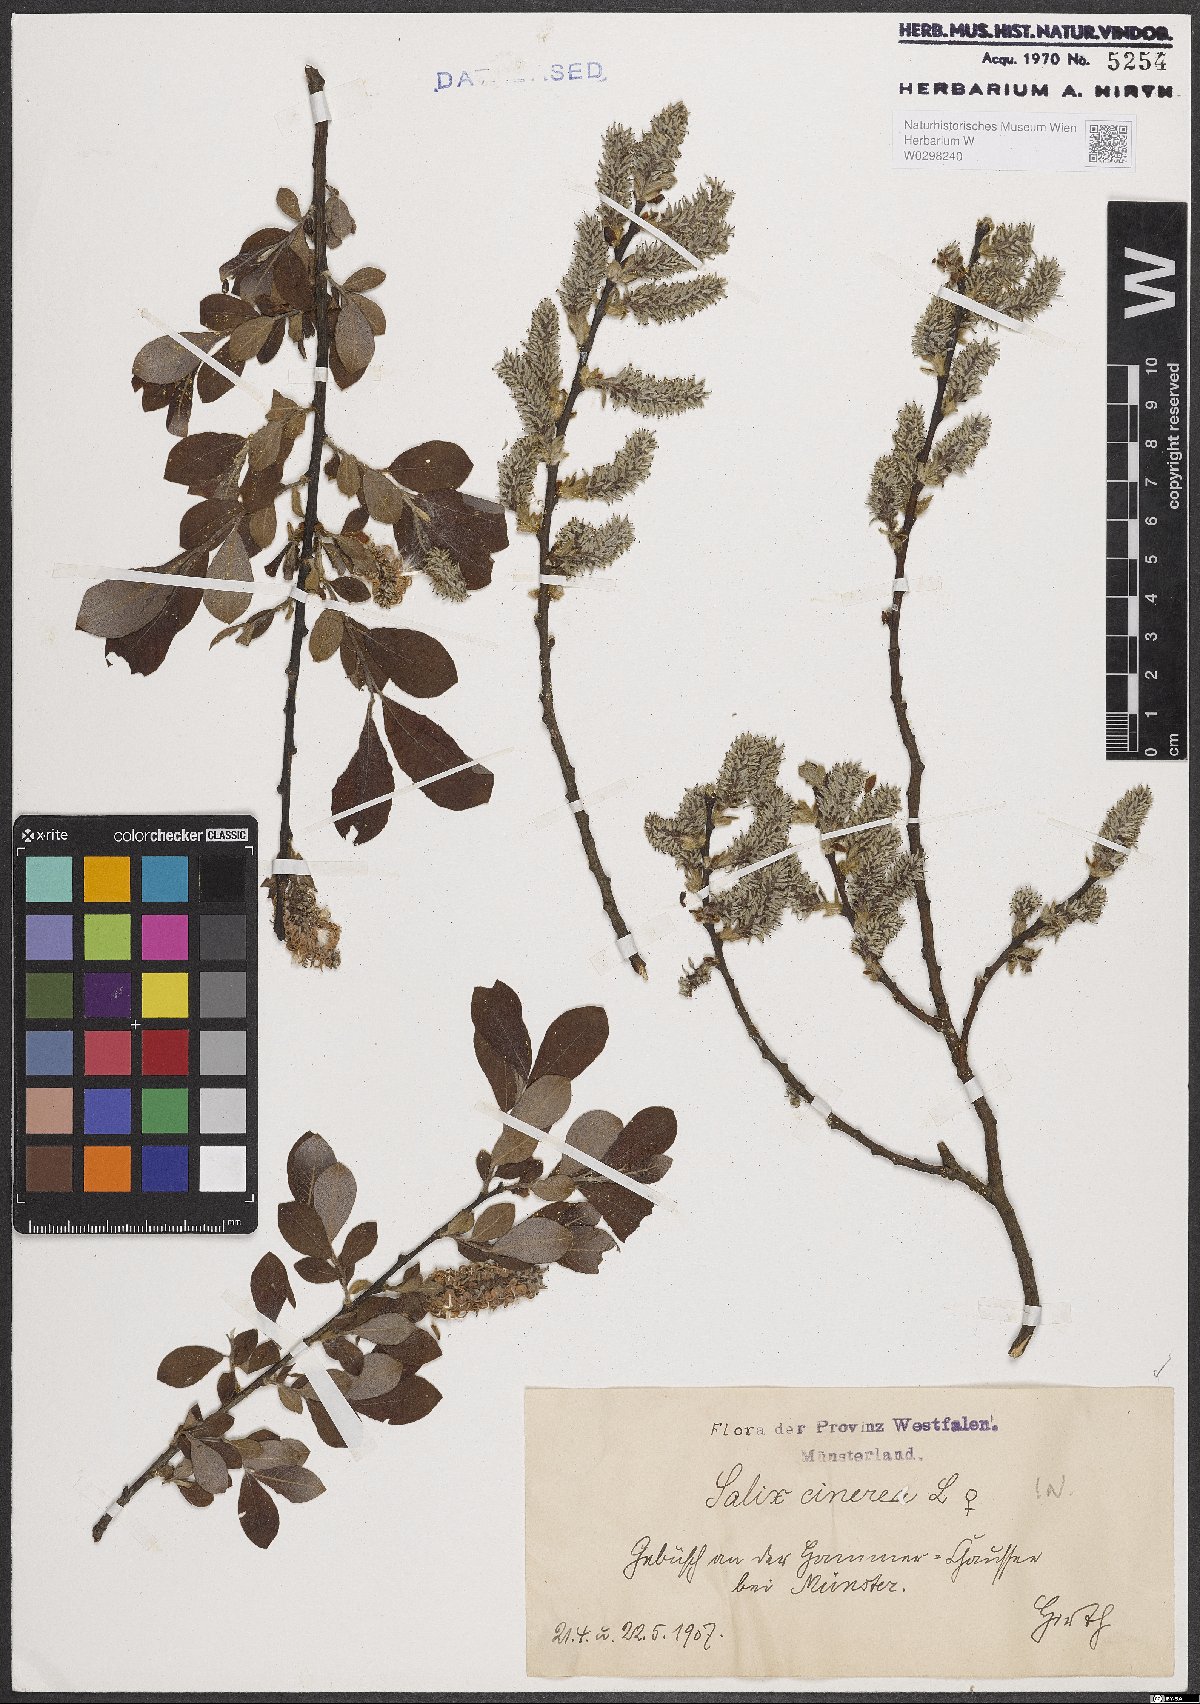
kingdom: Plantae
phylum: Tracheophyta
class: Magnoliopsida
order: Malpighiales
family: Salicaceae
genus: Salix
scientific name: Salix cinerea
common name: Common sallow
